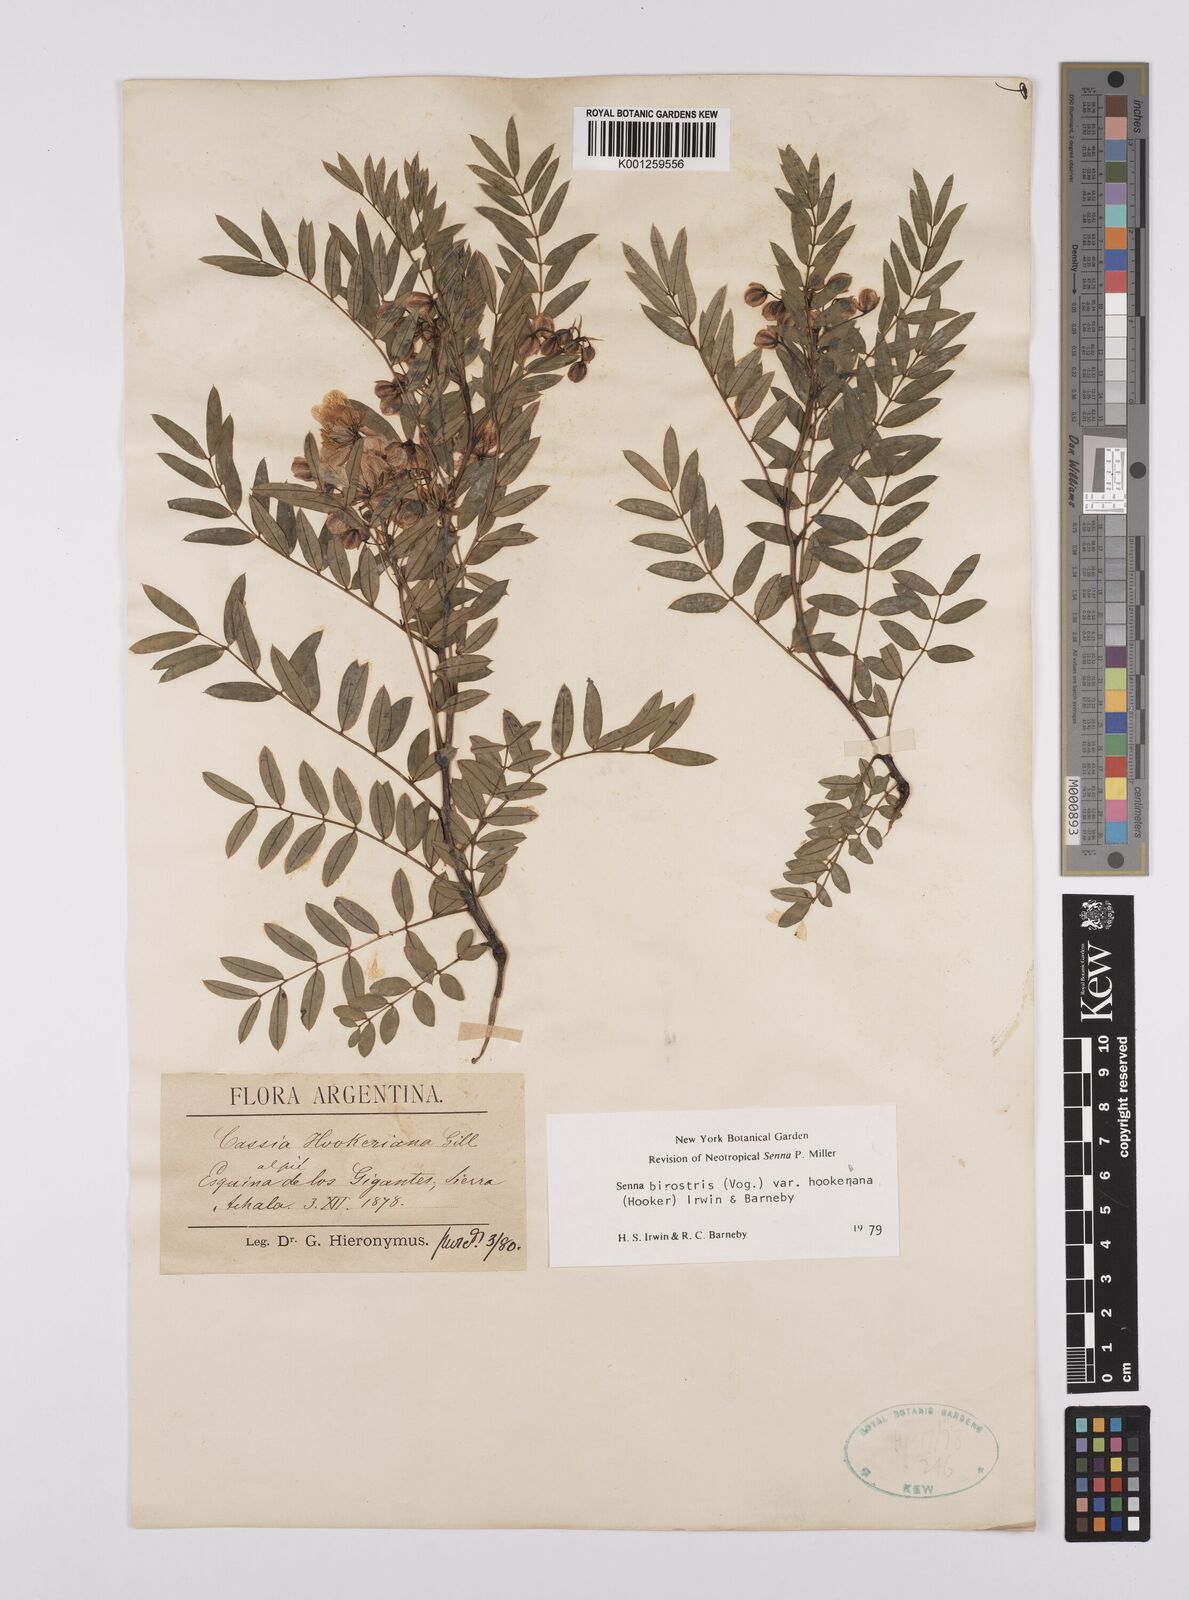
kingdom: Plantae
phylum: Tracheophyta
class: Magnoliopsida
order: Fabales
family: Fabaceae
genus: Senna
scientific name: Senna birostris
